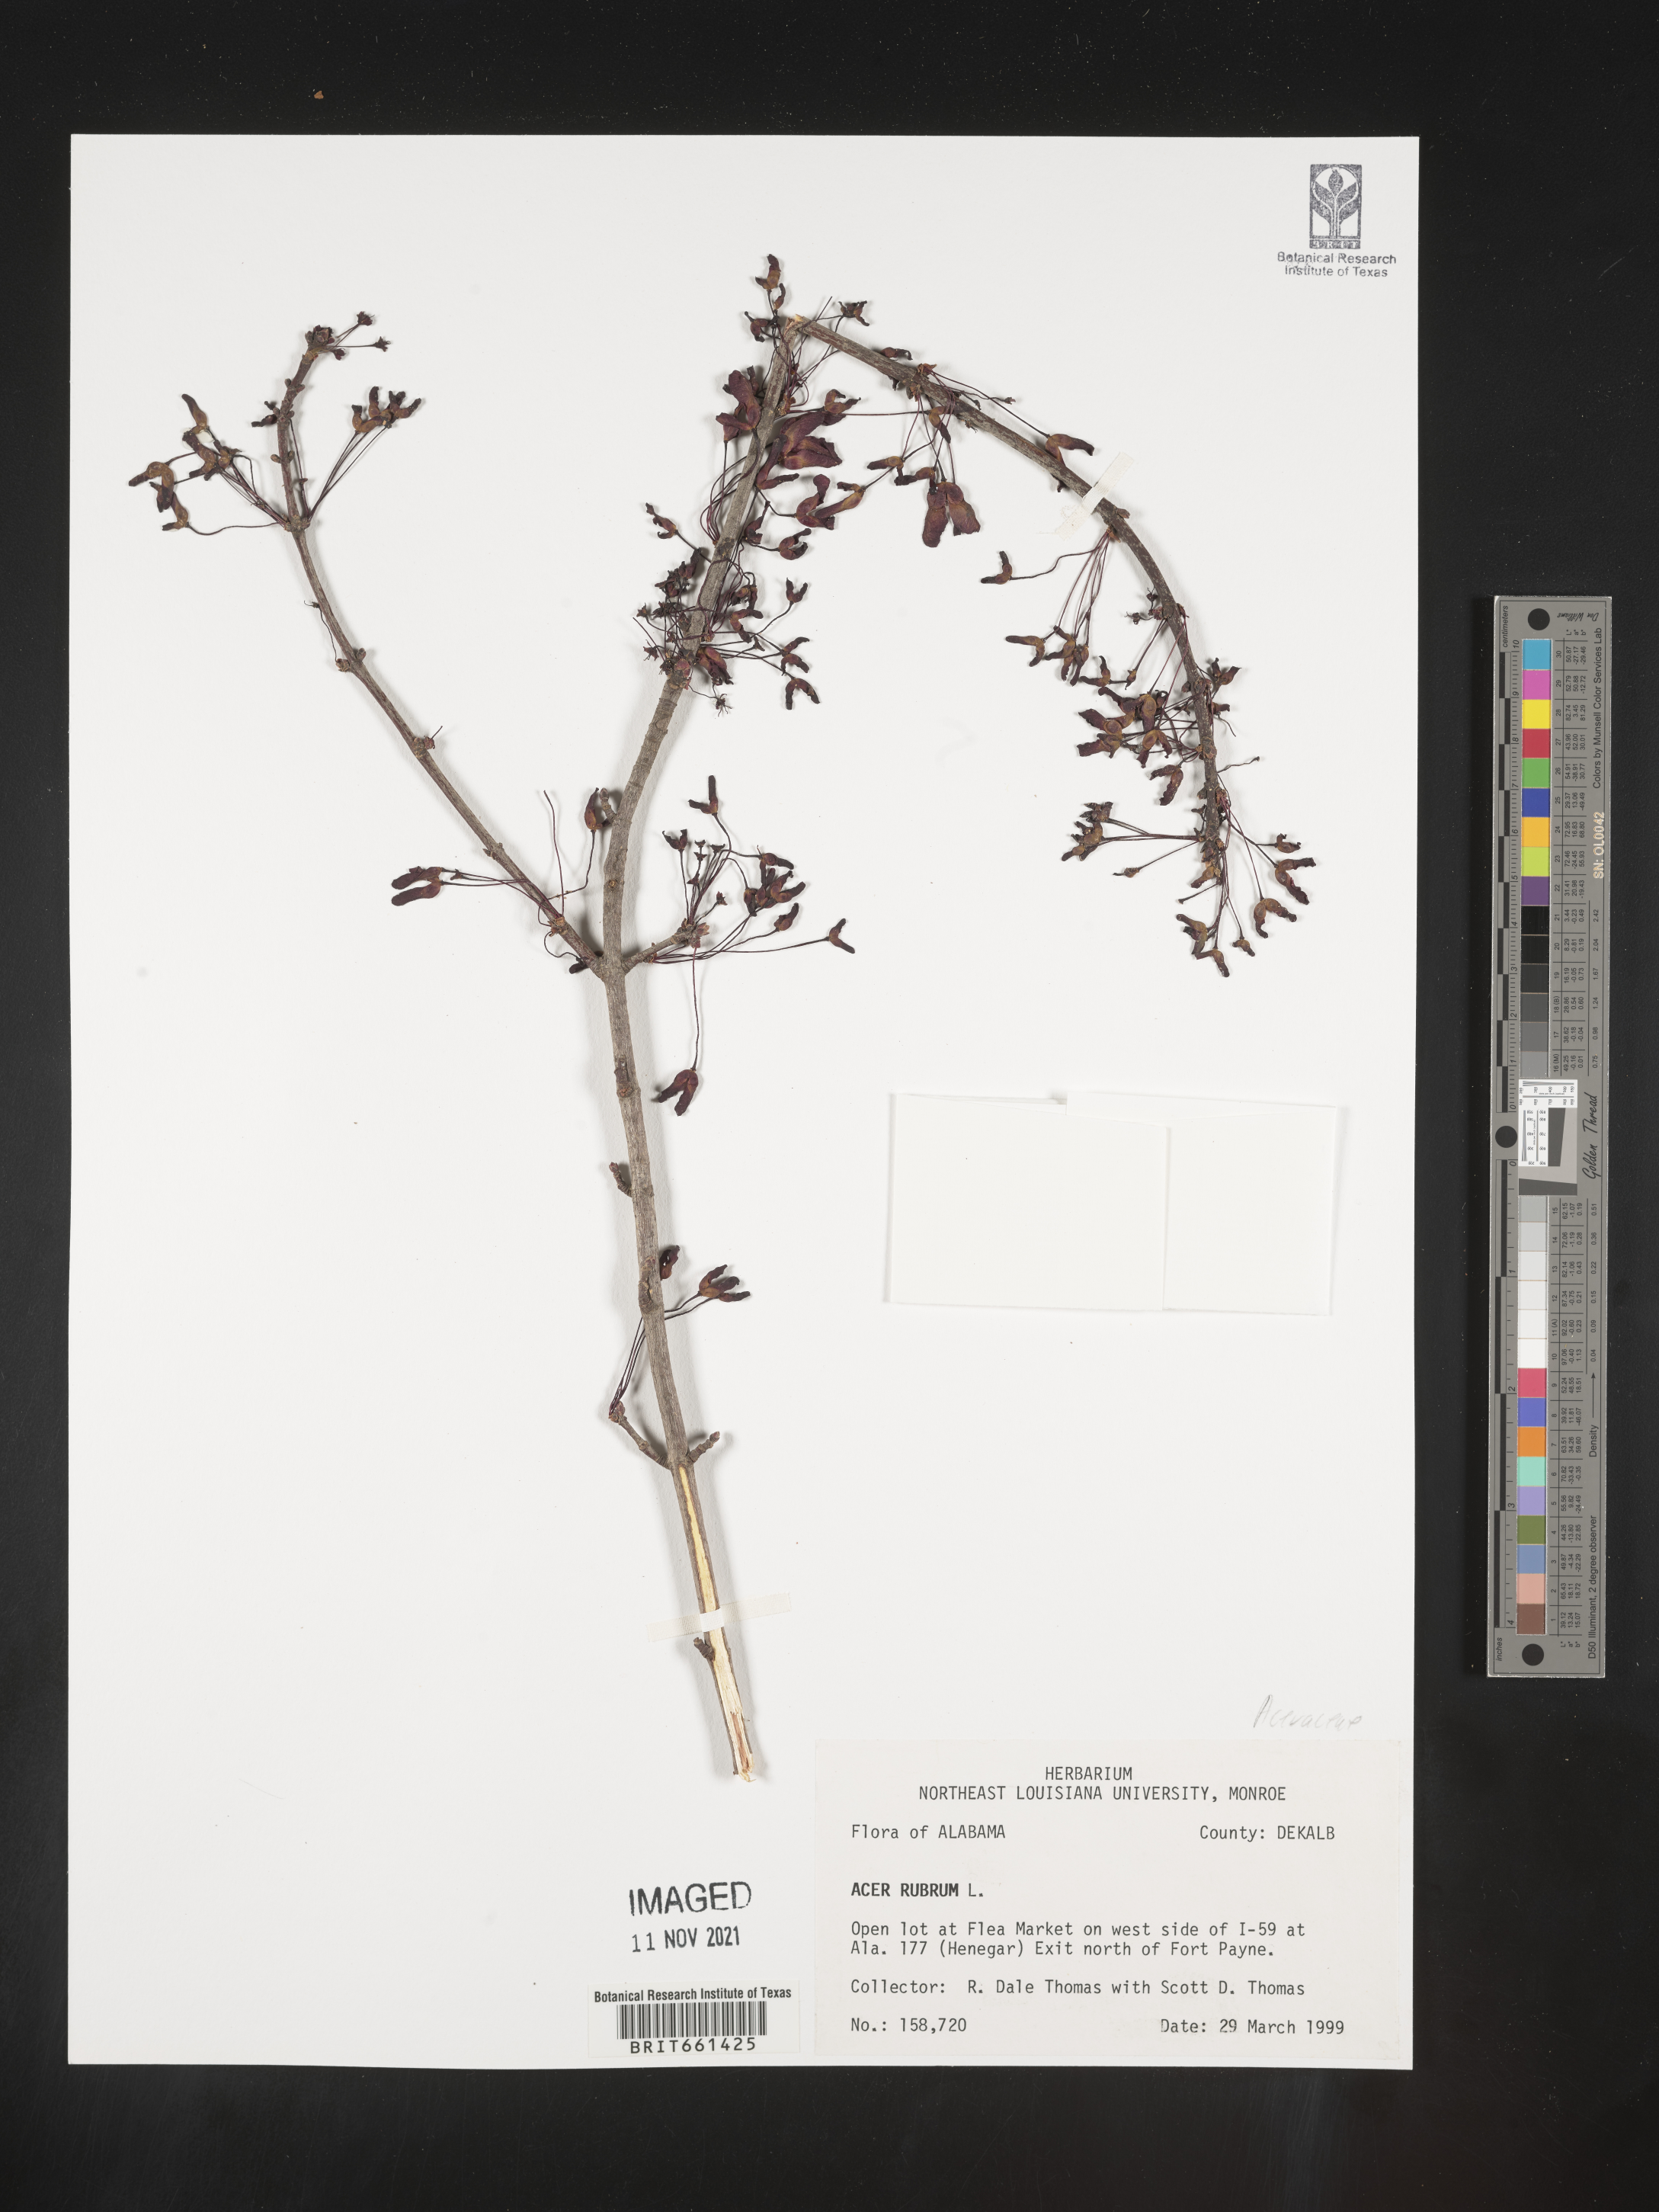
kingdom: Plantae
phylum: Tracheophyta
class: Magnoliopsida
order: Sapindales
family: Sapindaceae
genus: Acer
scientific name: Acer rubrum
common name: Red maple
